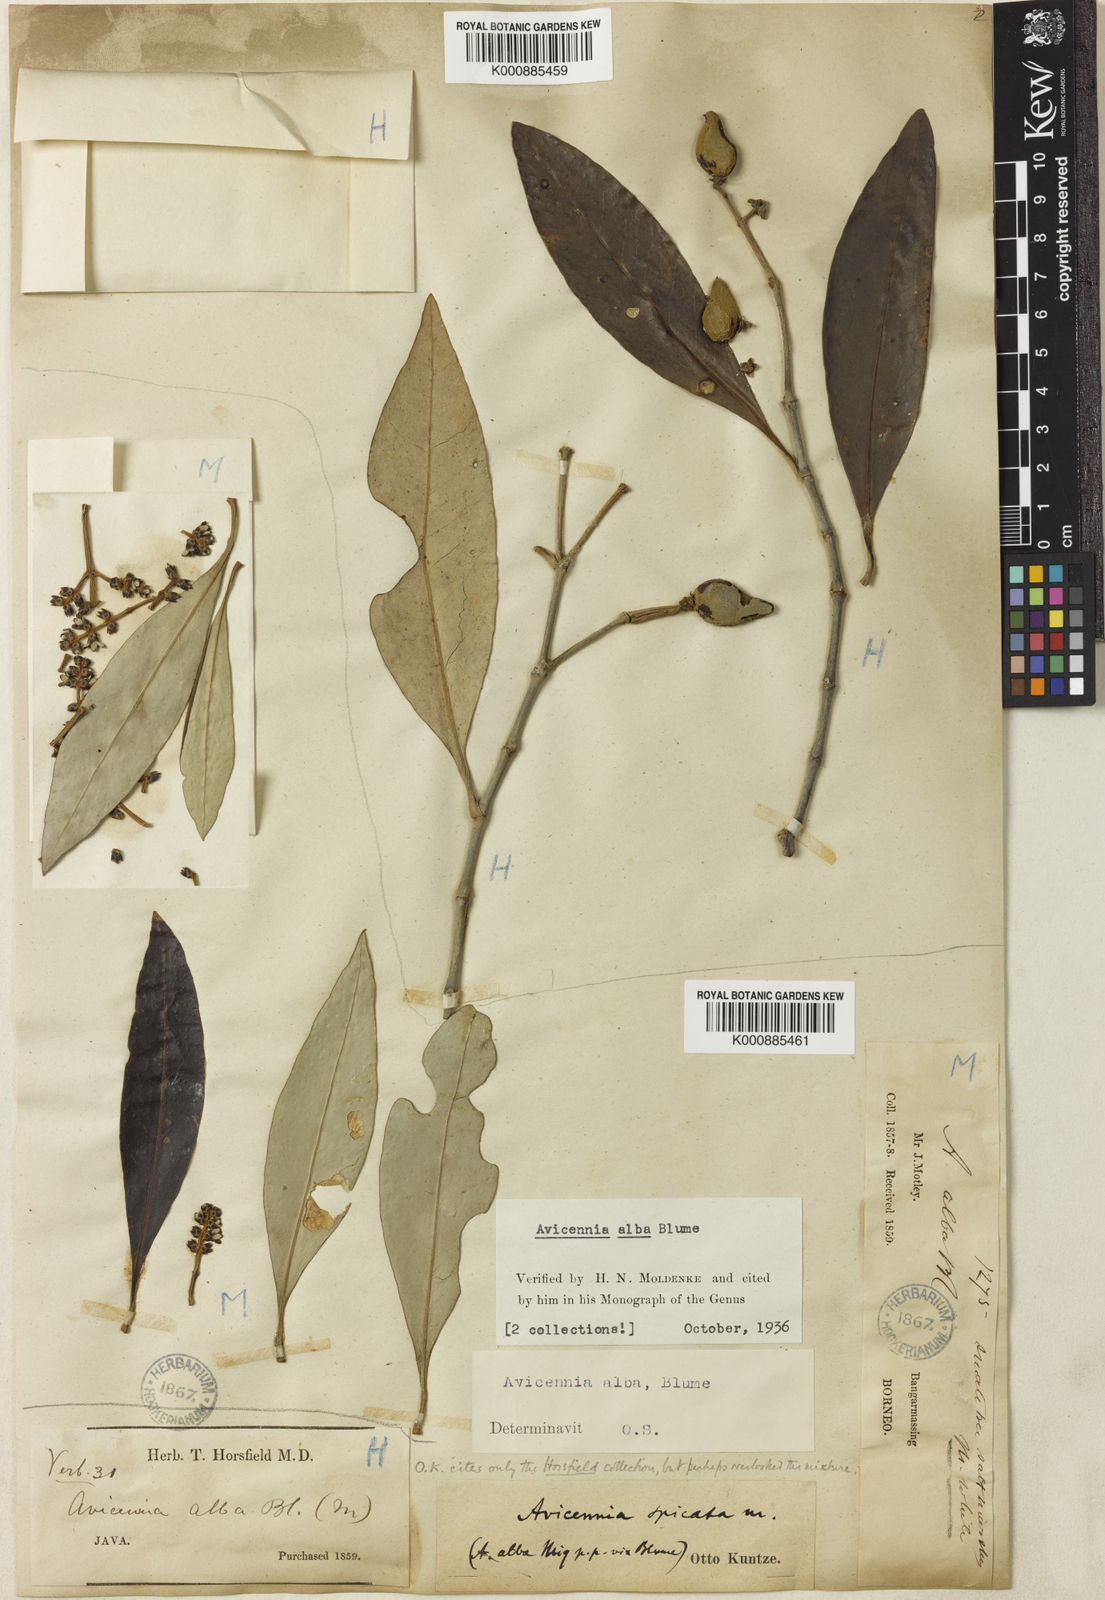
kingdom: Plantae
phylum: Tracheophyta
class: Magnoliopsida
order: Lamiales
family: Acanthaceae
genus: Avicennia
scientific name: Avicennia alba
